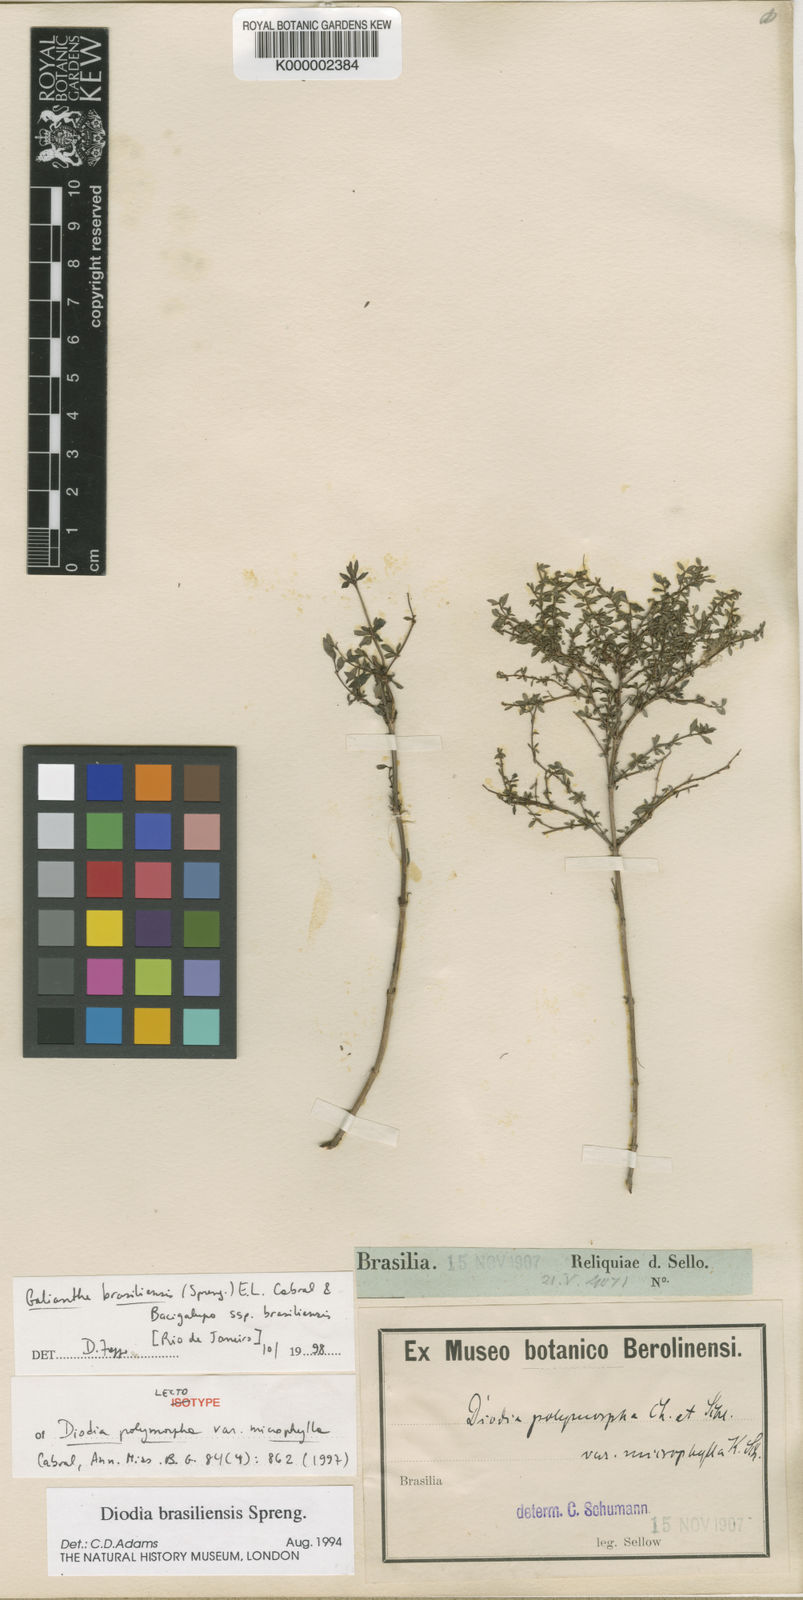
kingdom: Plantae
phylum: Tracheophyta
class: Magnoliopsida
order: Gentianales
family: Rubiaceae
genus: Galianthe
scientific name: Galianthe brasiliensis
